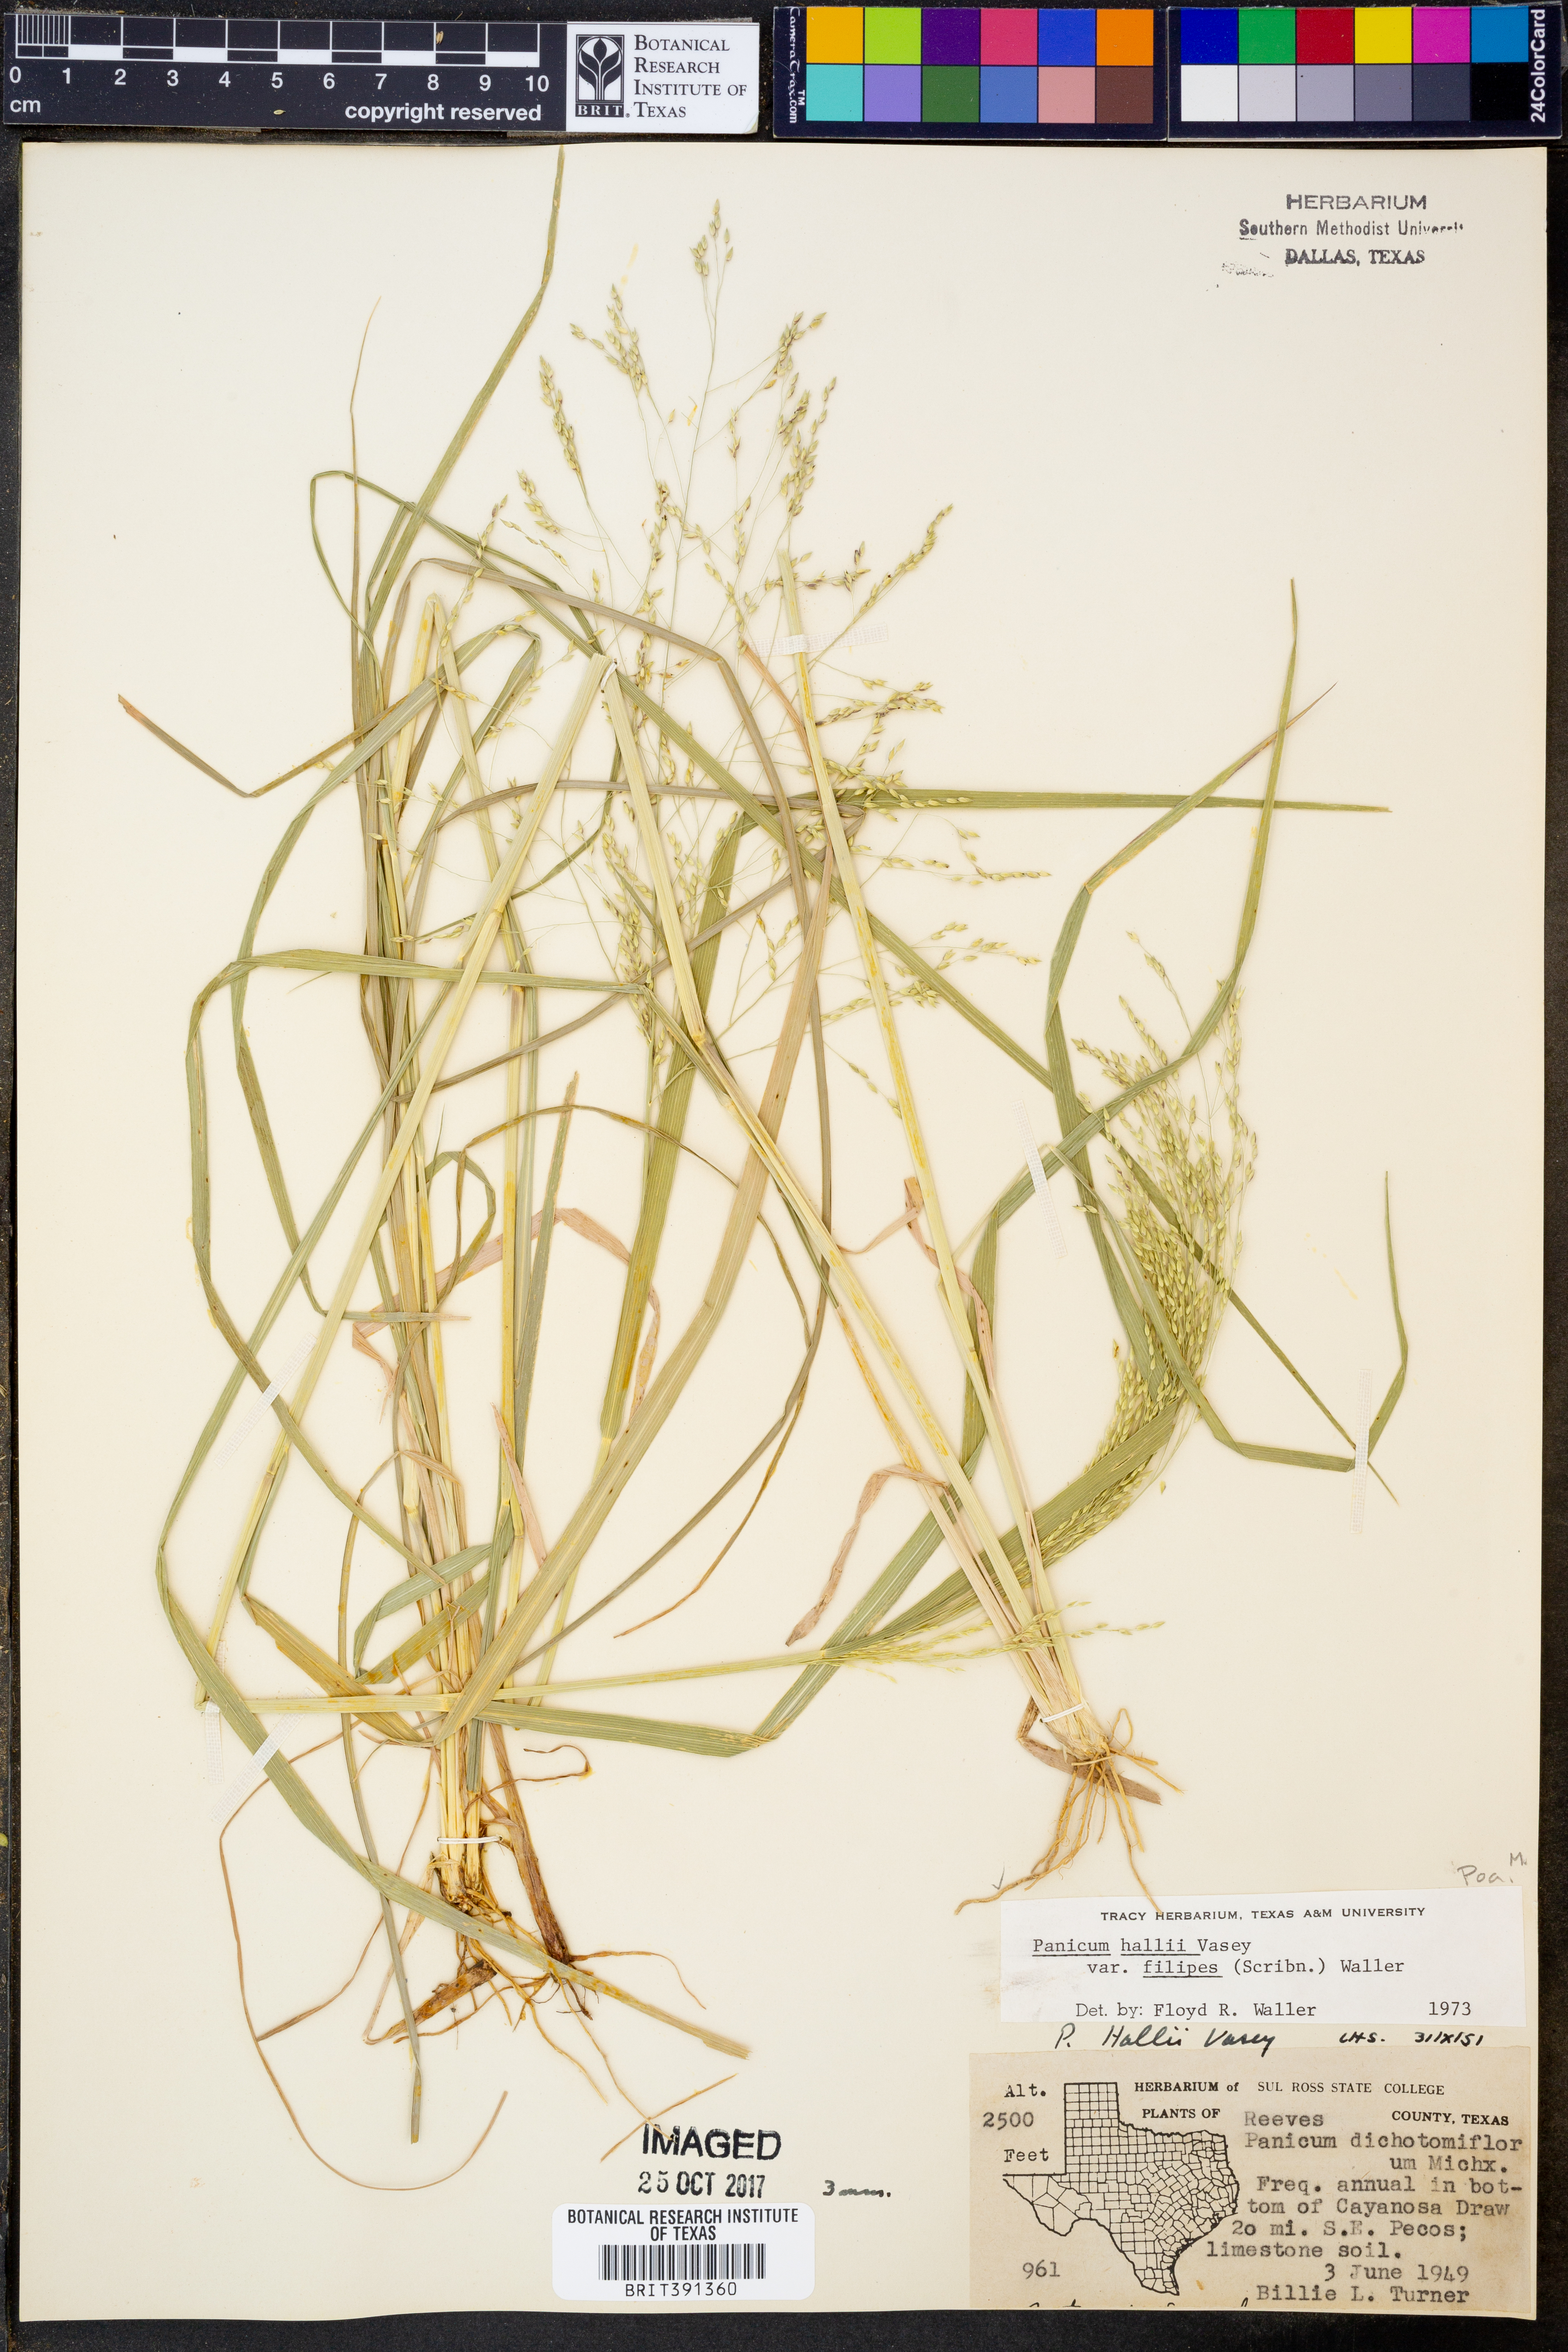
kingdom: Plantae
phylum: Tracheophyta
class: Liliopsida
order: Poales
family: Poaceae
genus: Panicum
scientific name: Panicum hallii
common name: Hall's witchgrass
